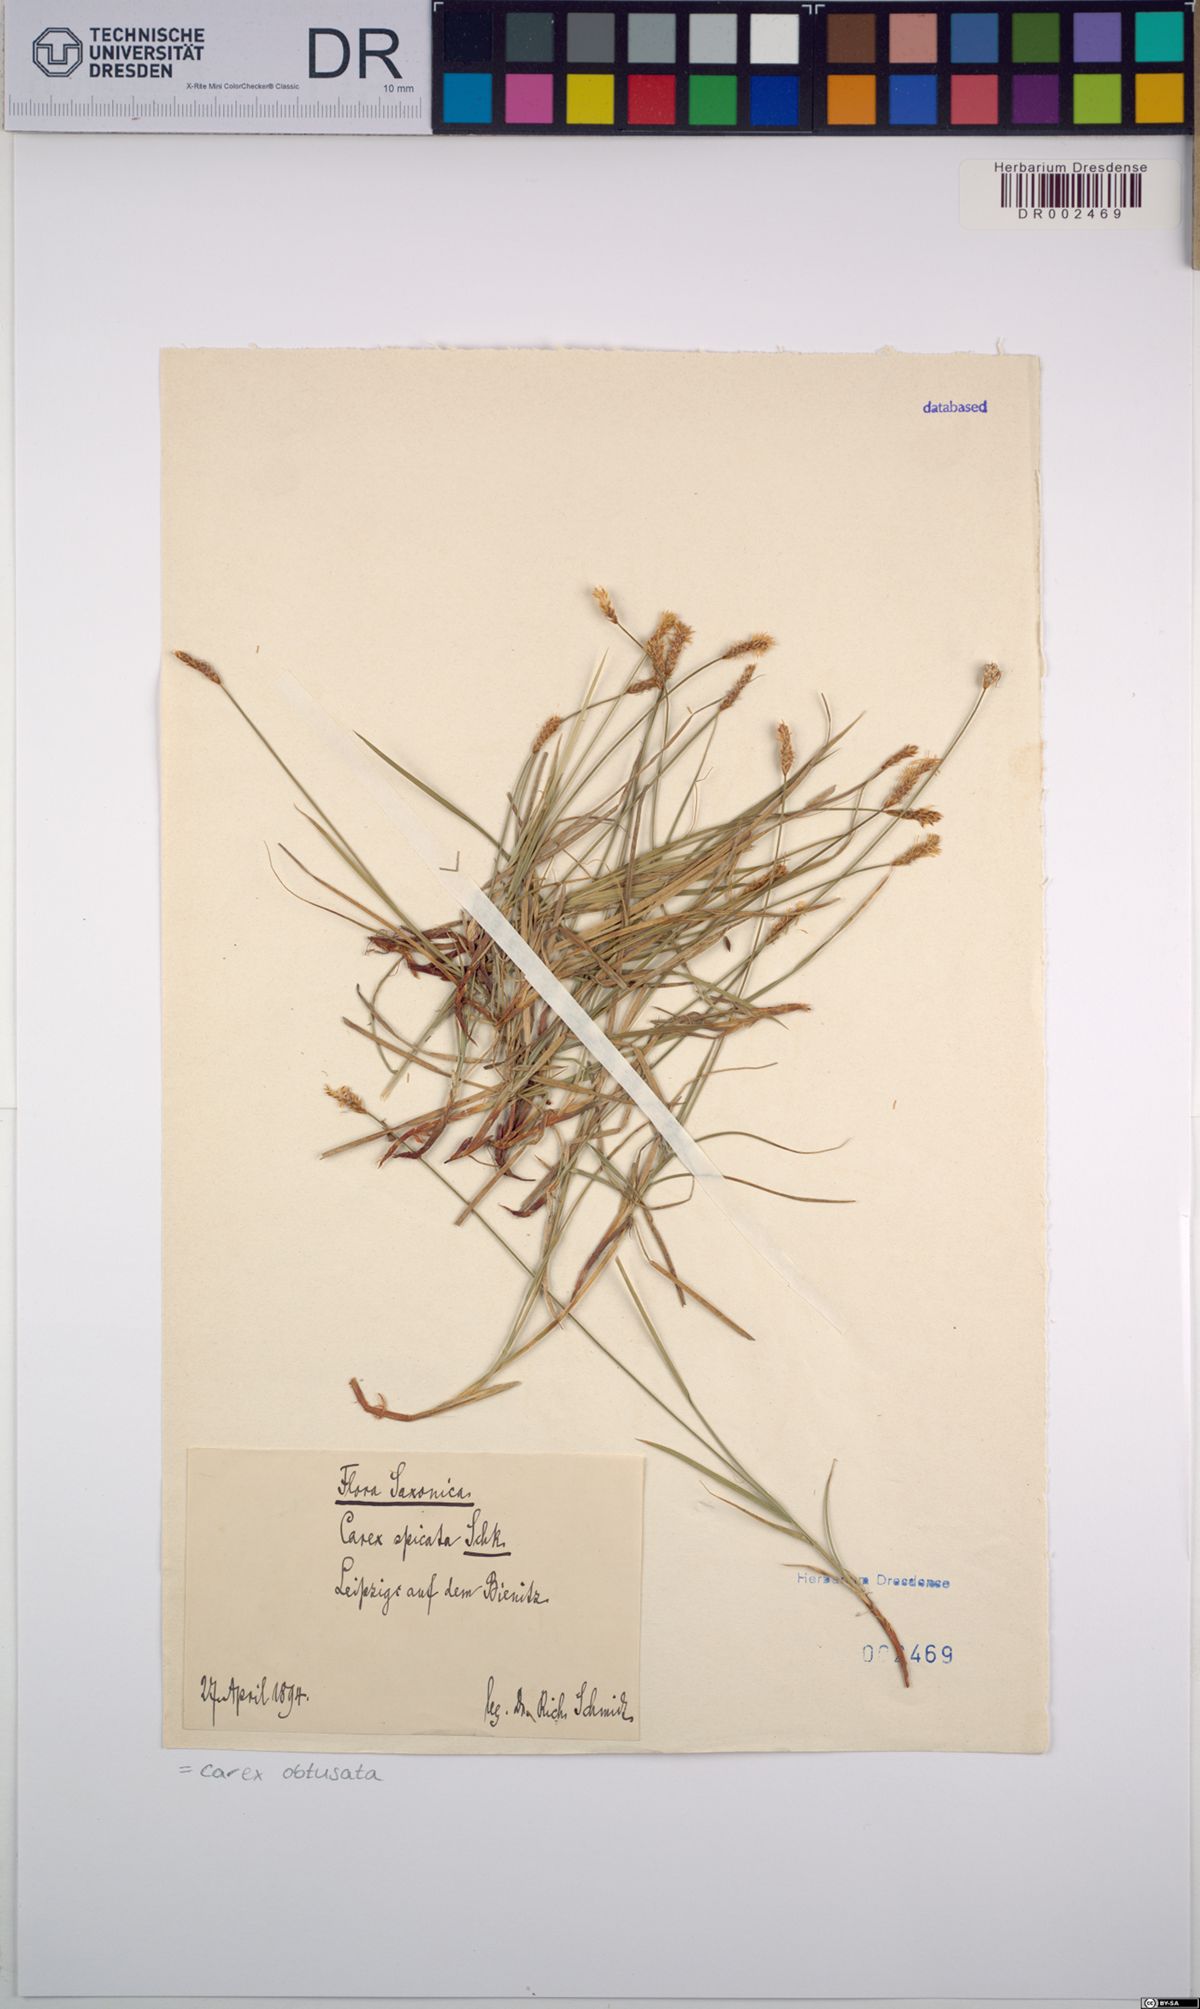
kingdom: Plantae
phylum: Tracheophyta
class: Liliopsida
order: Poales
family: Cyperaceae
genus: Carex
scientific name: Carex obtusata
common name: Blunt sedge
